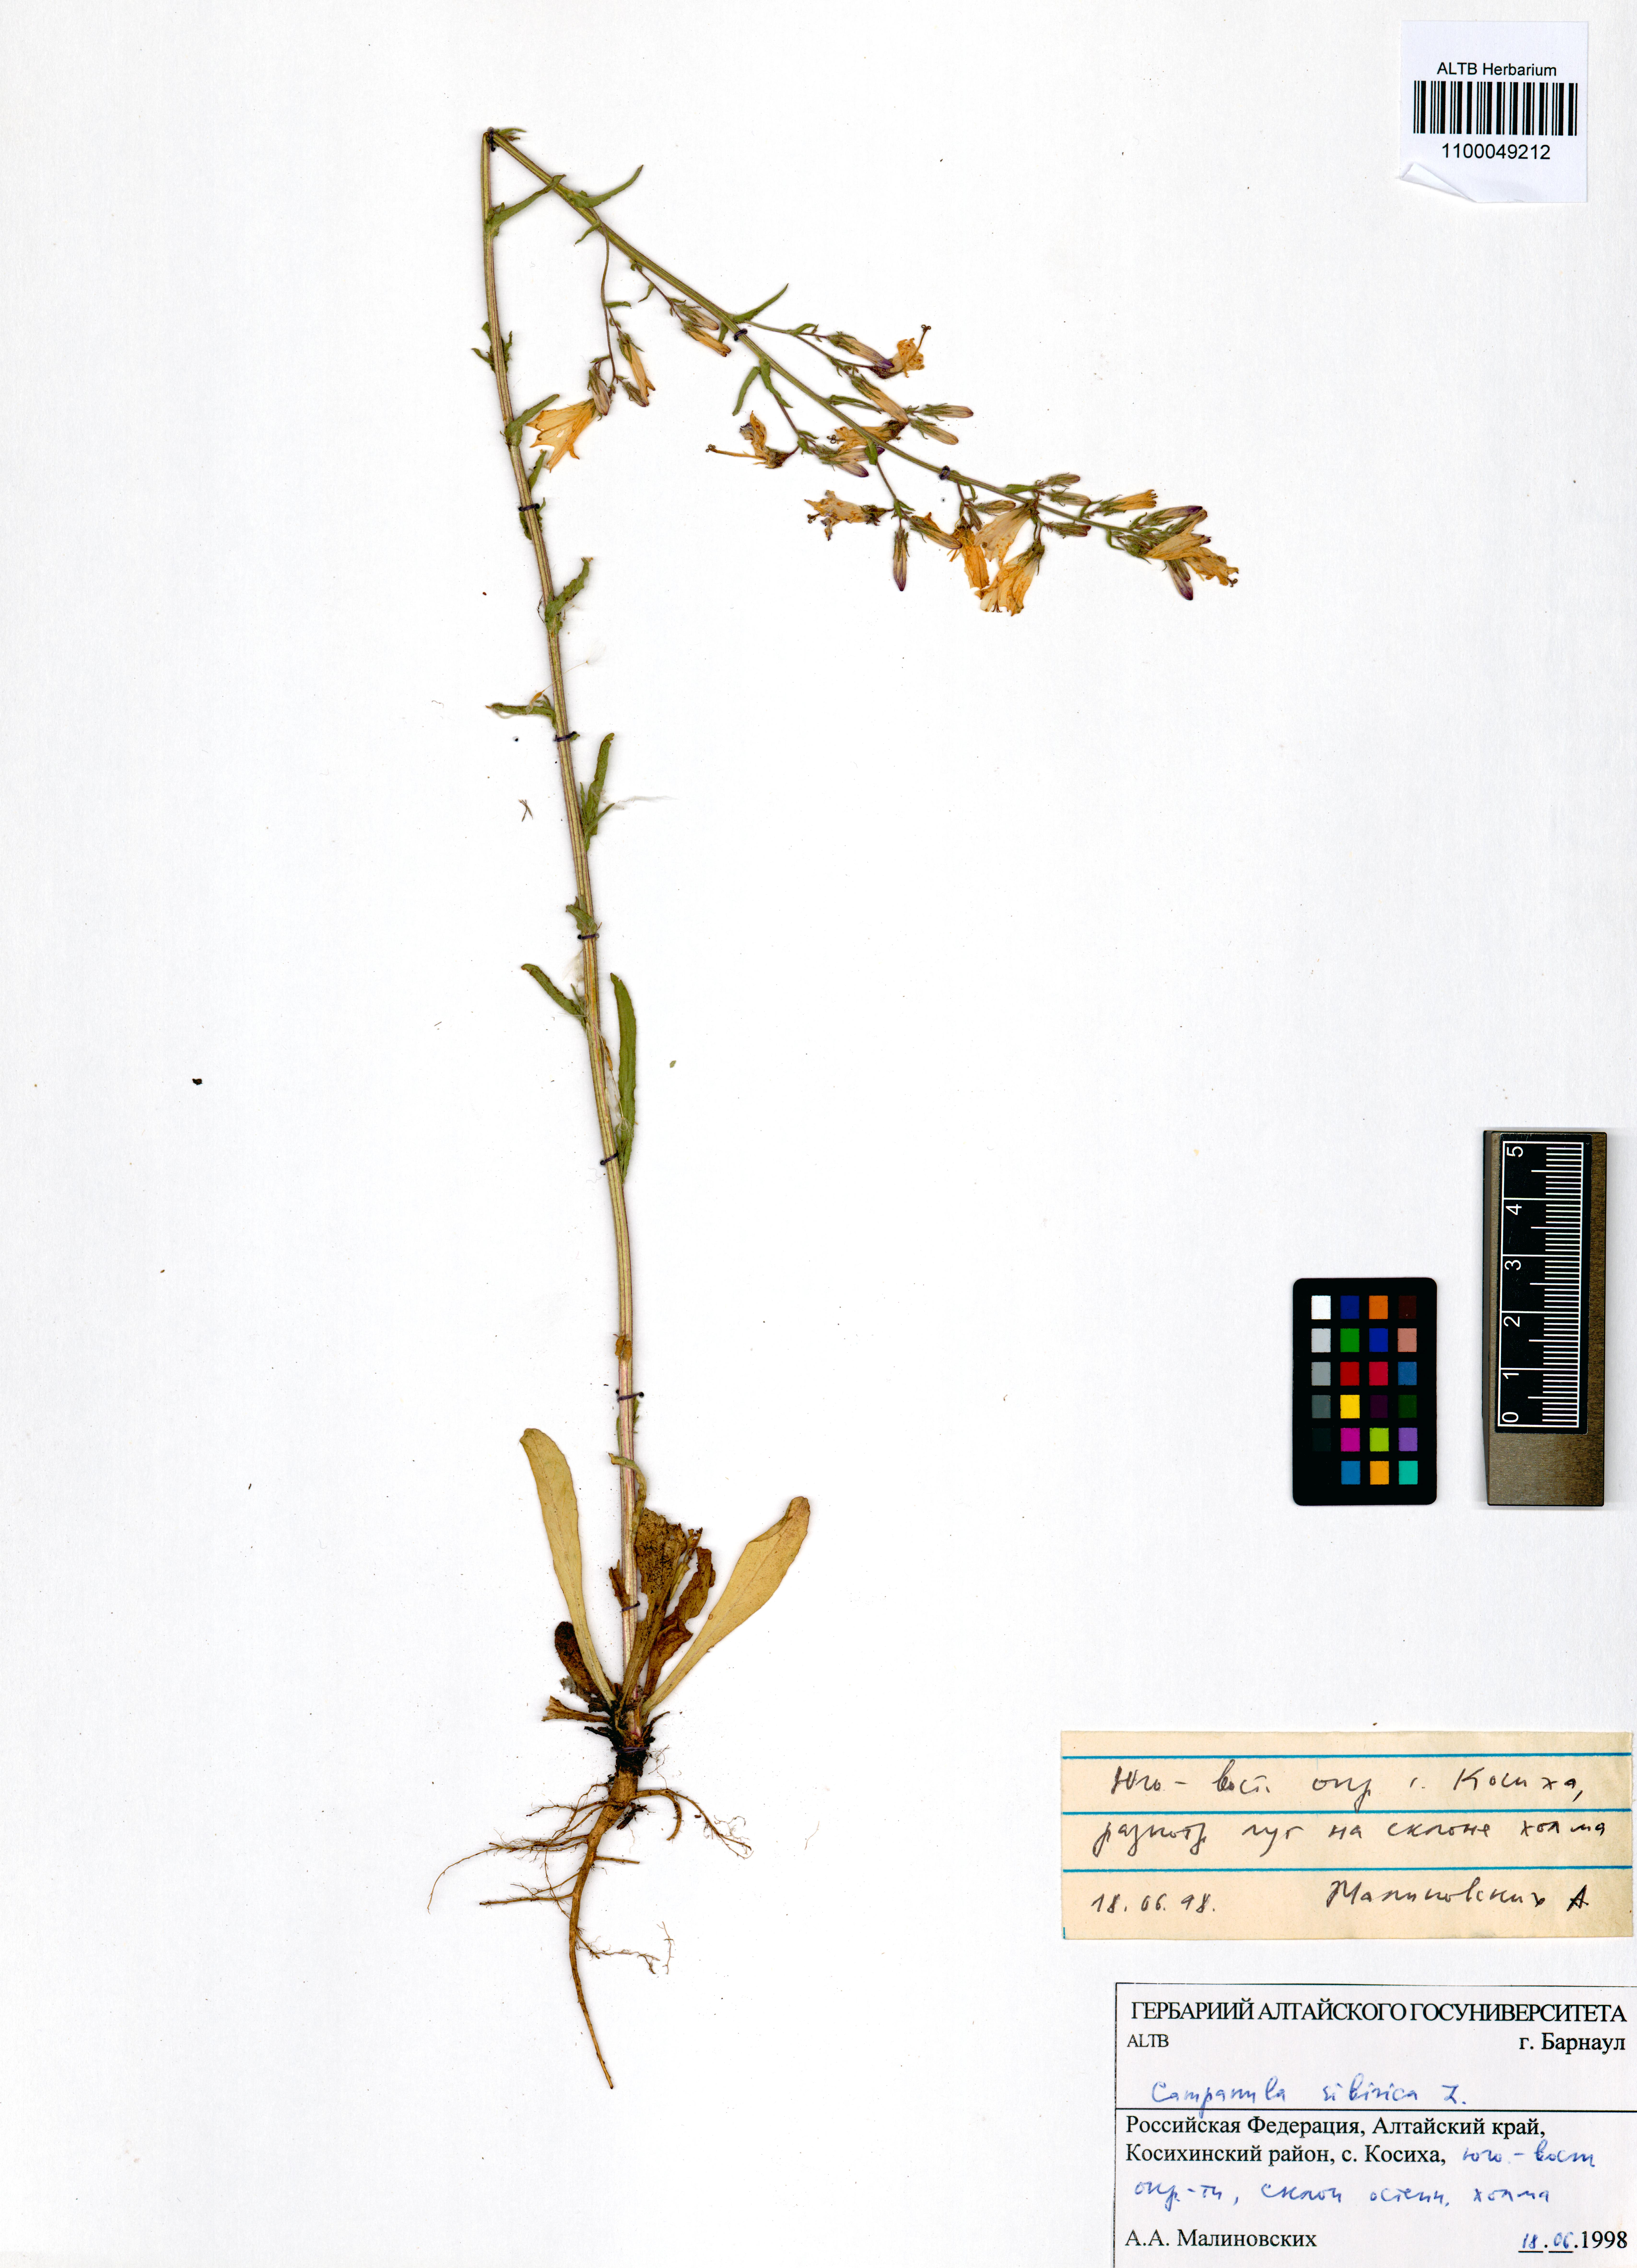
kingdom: Plantae
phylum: Tracheophyta
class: Magnoliopsida
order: Asterales
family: Campanulaceae
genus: Campanula
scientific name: Campanula sibirica
